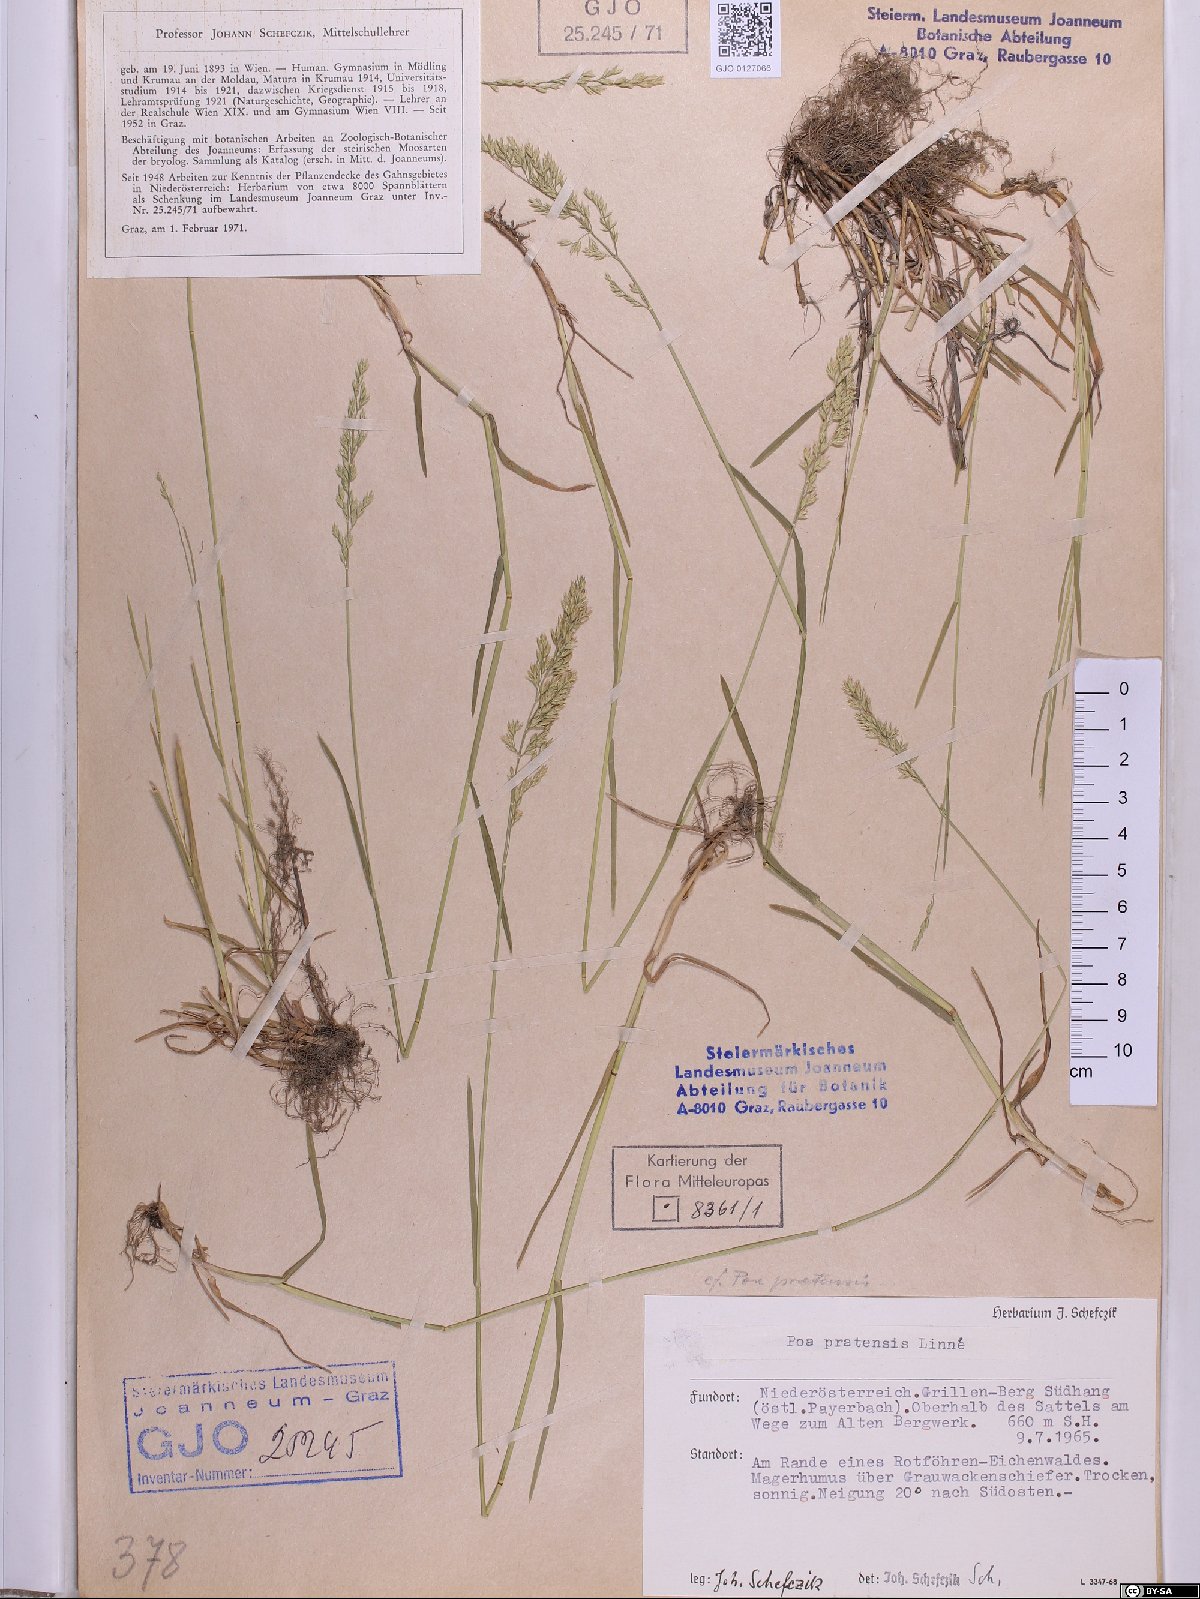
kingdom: Plantae
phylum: Tracheophyta
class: Liliopsida
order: Poales
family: Poaceae
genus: Poa
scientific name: Poa pratensis
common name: Kentucky bluegrass
